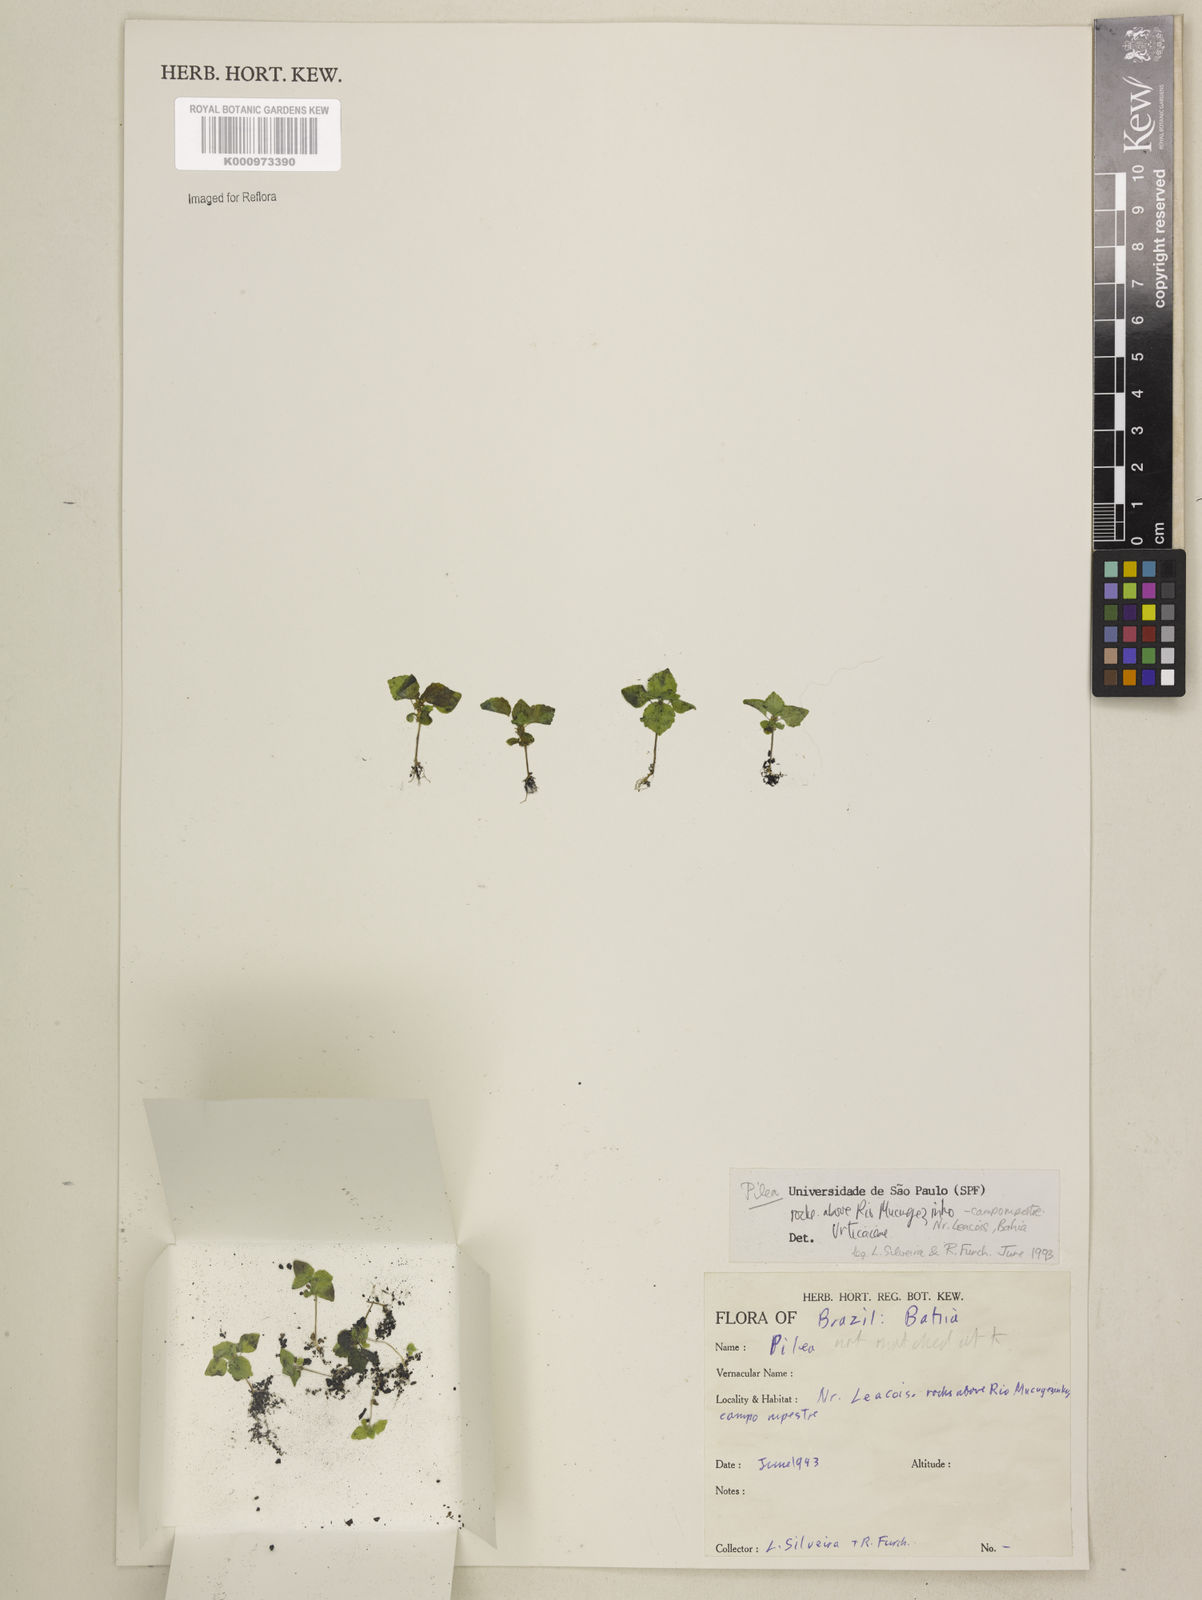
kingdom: Plantae
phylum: Tracheophyta
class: Magnoliopsida
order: Rosales
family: Urticaceae
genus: Pilea
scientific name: Pilea hyalina
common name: Virdrillo
